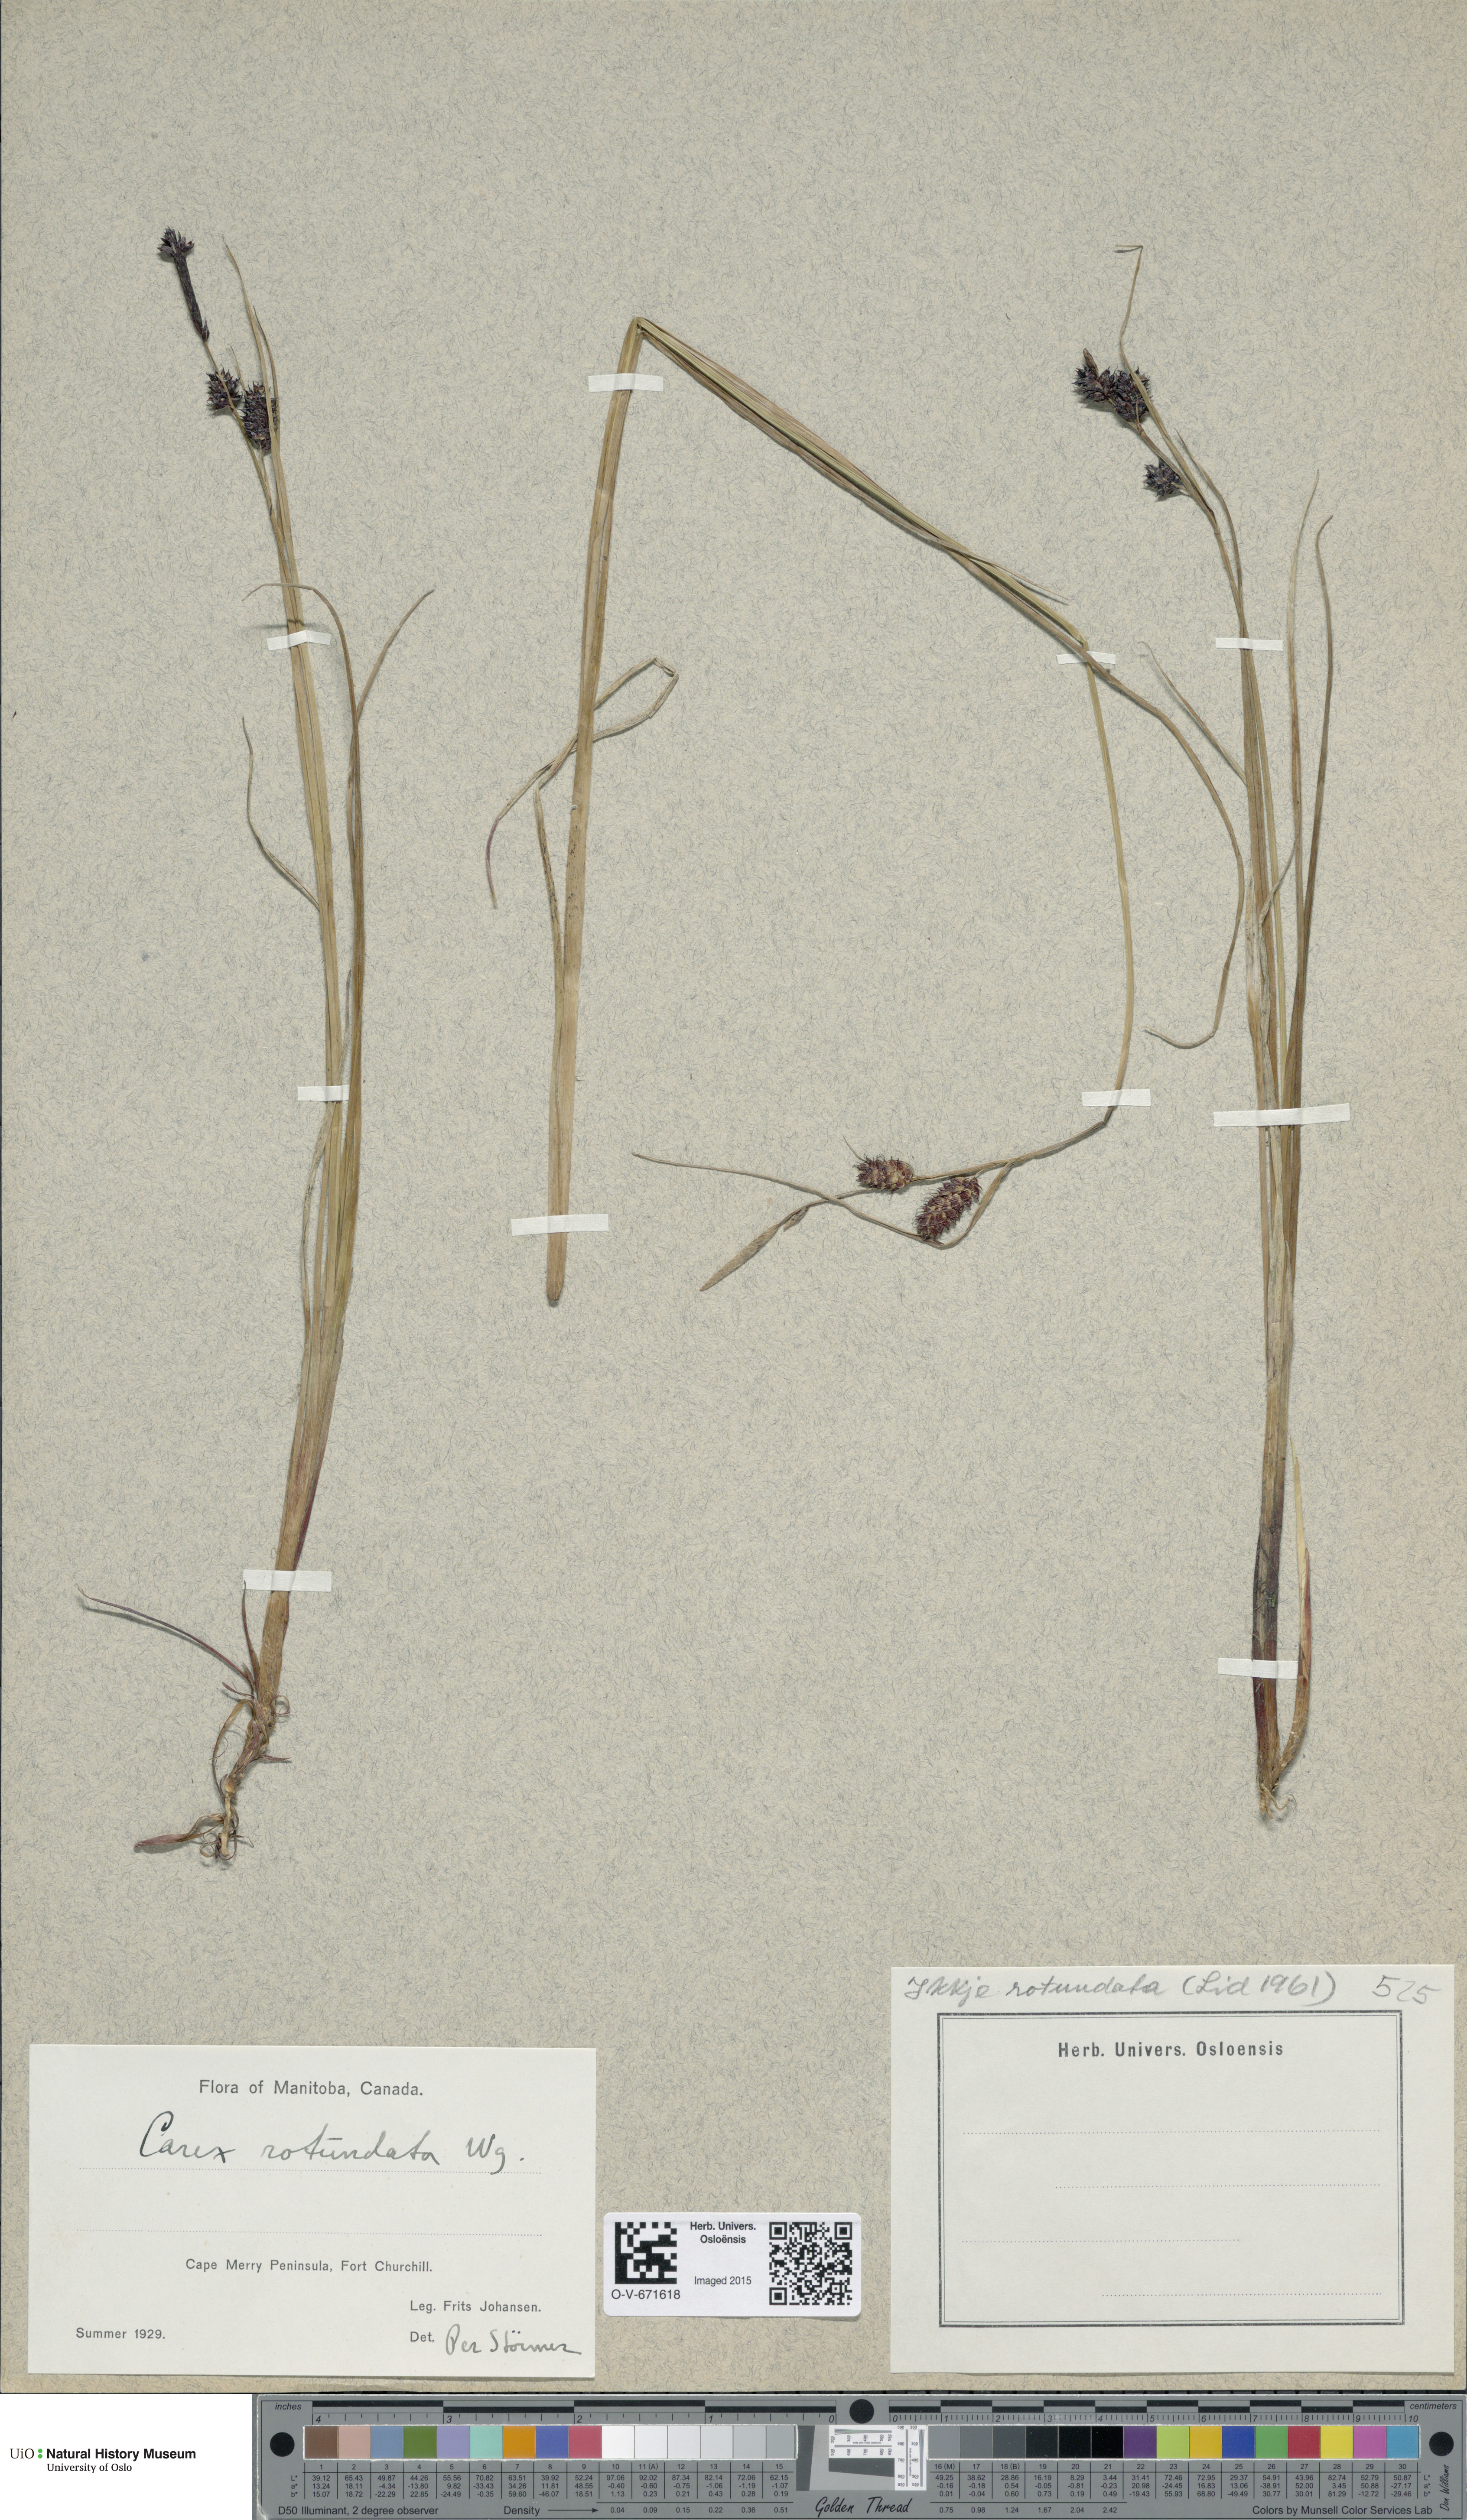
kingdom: Plantae
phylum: Tracheophyta
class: Liliopsida
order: Poales
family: Cyperaceae
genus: Carex
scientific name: Carex rotundata
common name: Round-fruited sedge
